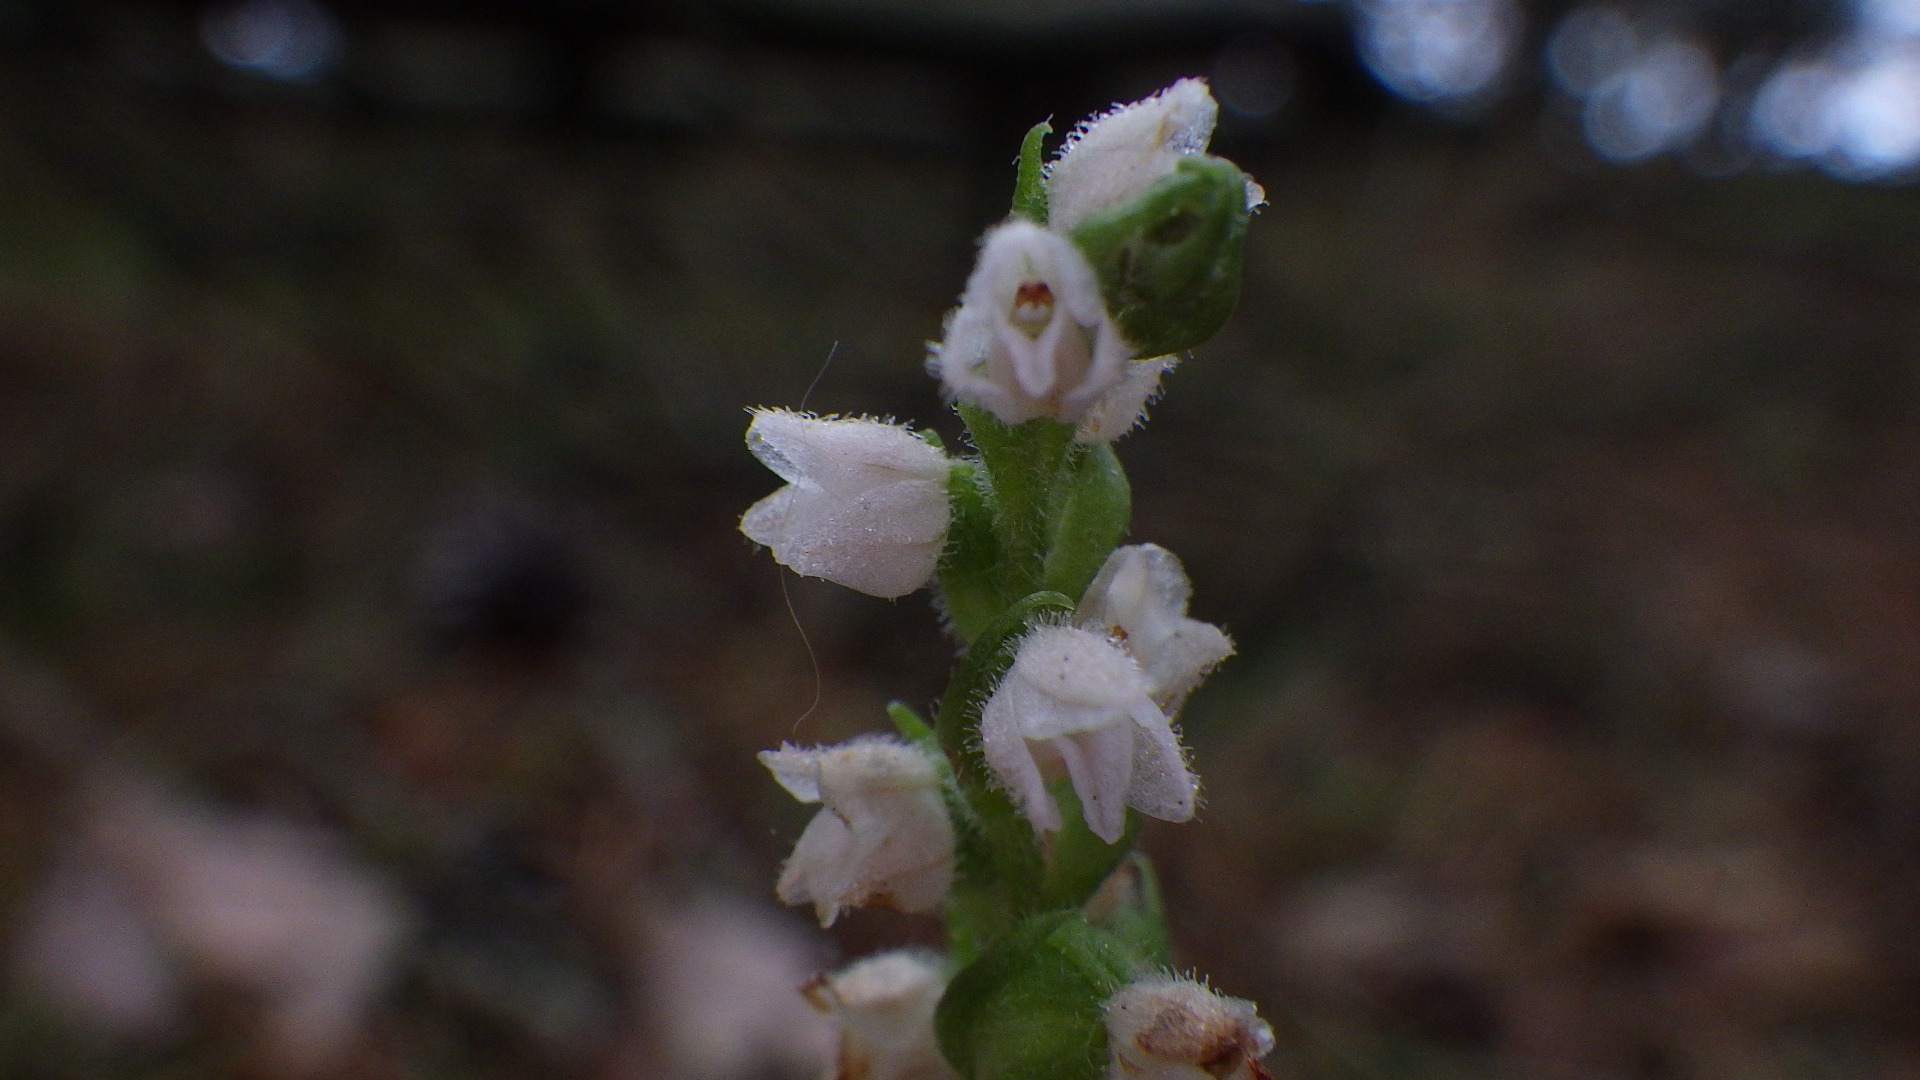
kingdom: Plantae
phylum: Tracheophyta
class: Liliopsida
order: Asparagales
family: Orchidaceae
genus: Goodyera
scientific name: Goodyera repens
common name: Knærod
